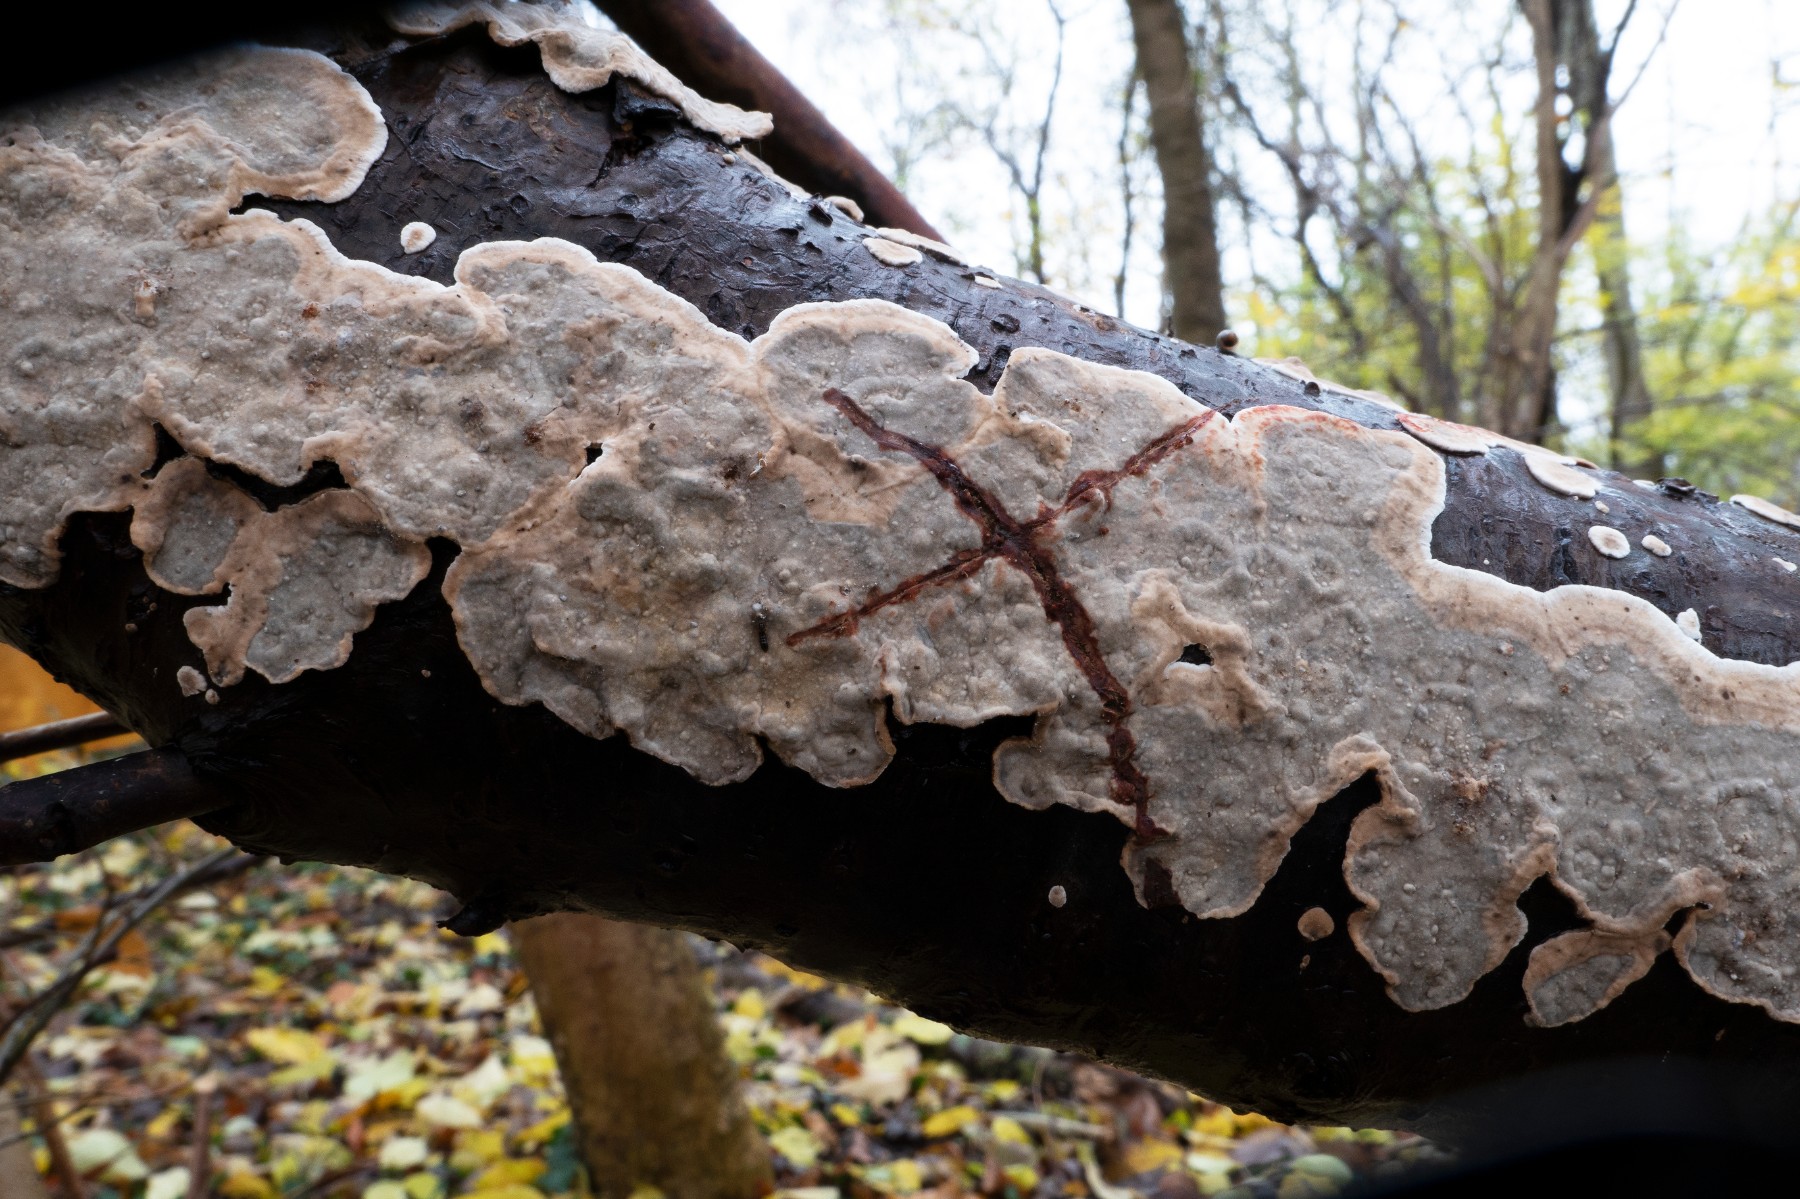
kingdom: Fungi
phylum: Basidiomycota
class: Agaricomycetes
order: Russulales
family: Stereaceae
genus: Stereum
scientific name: Stereum rugosum
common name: rynket lædersvamp
